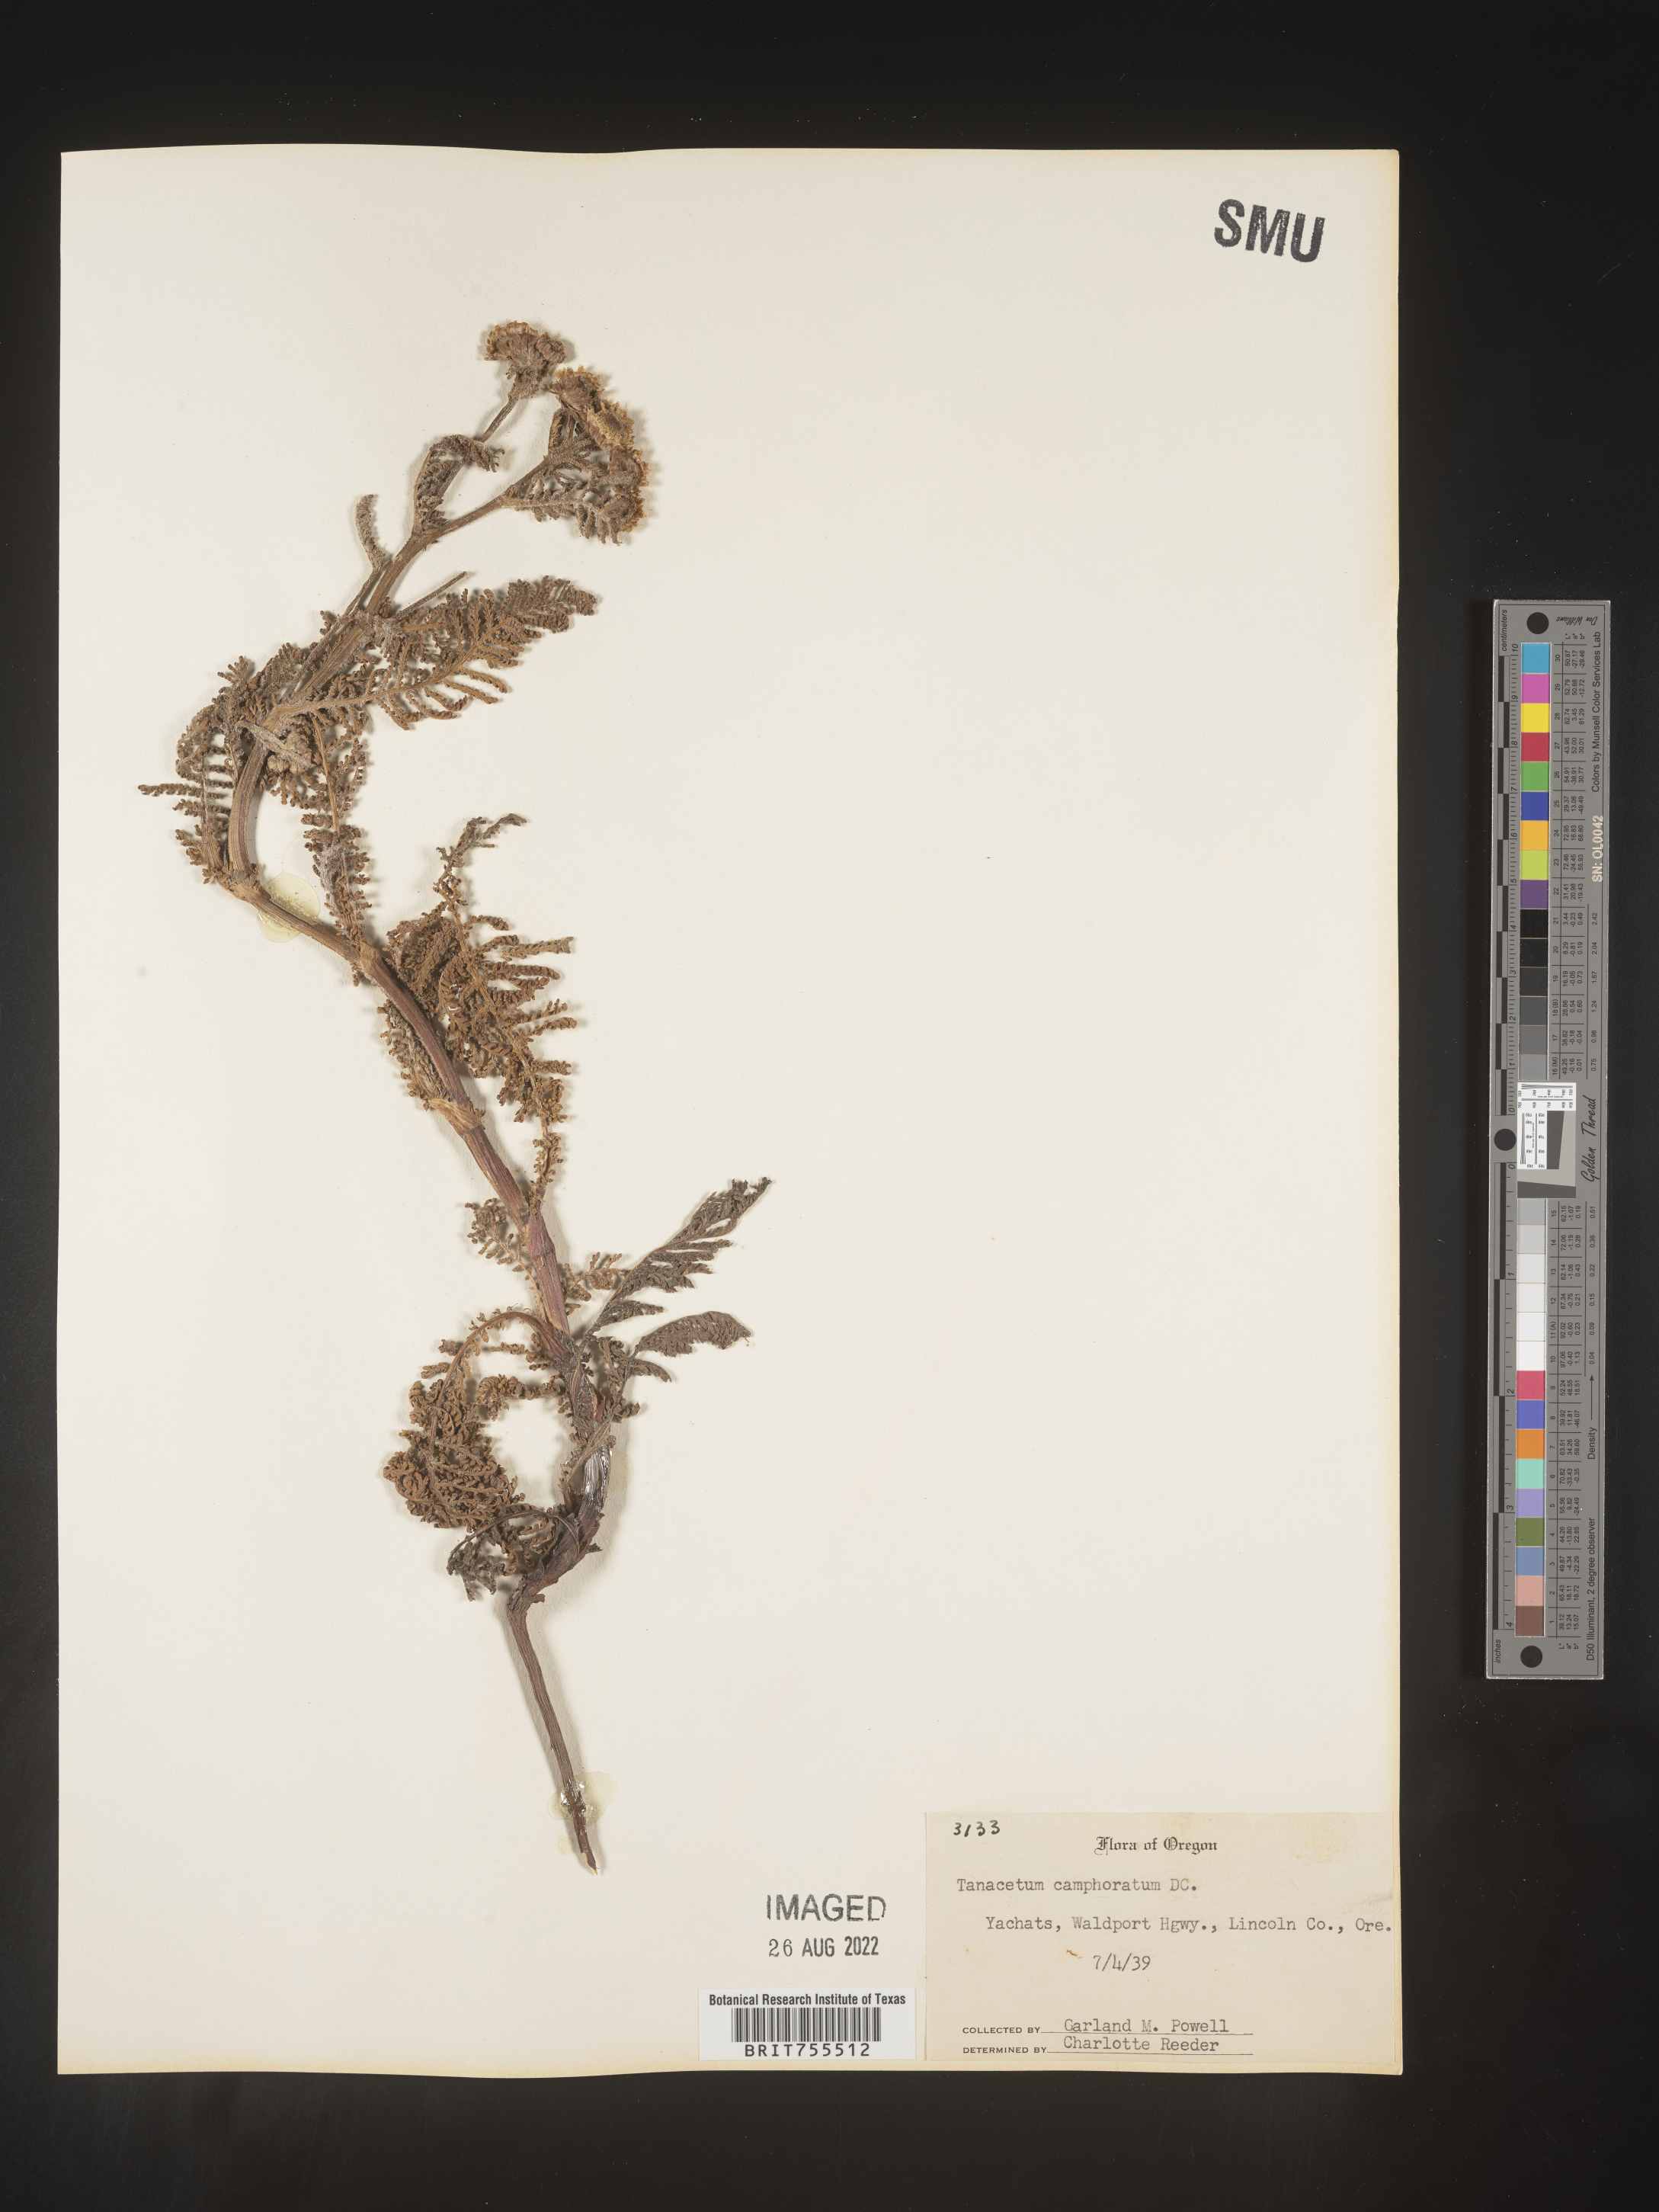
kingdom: Plantae
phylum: Tracheophyta
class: Magnoliopsida
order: Asterales
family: Asteraceae
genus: Tanacetum
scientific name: Tanacetum bipinnatum
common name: Dwarf tansy
